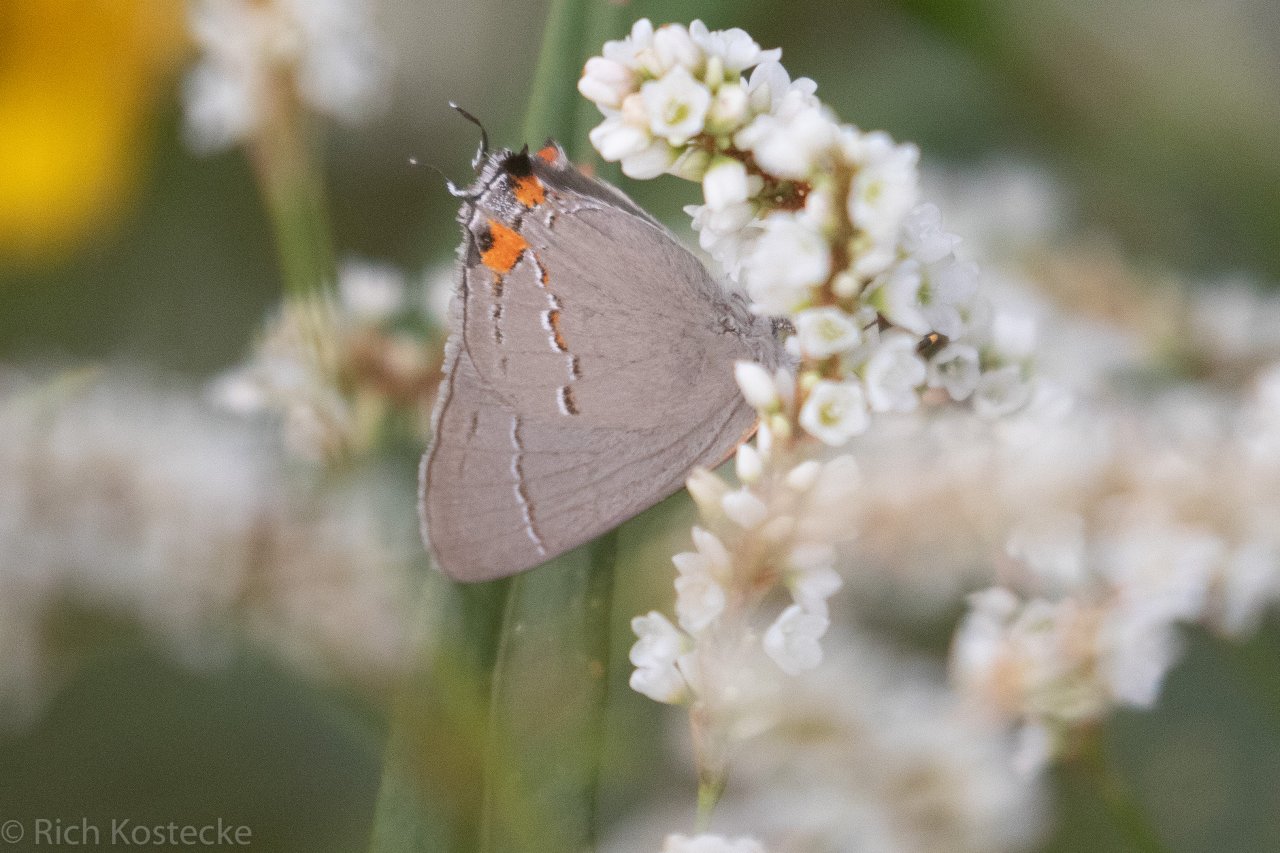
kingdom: Animalia
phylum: Arthropoda
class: Insecta
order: Lepidoptera
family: Lycaenidae
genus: Strymon
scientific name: Strymon melinus
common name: Gray Hairstreak
